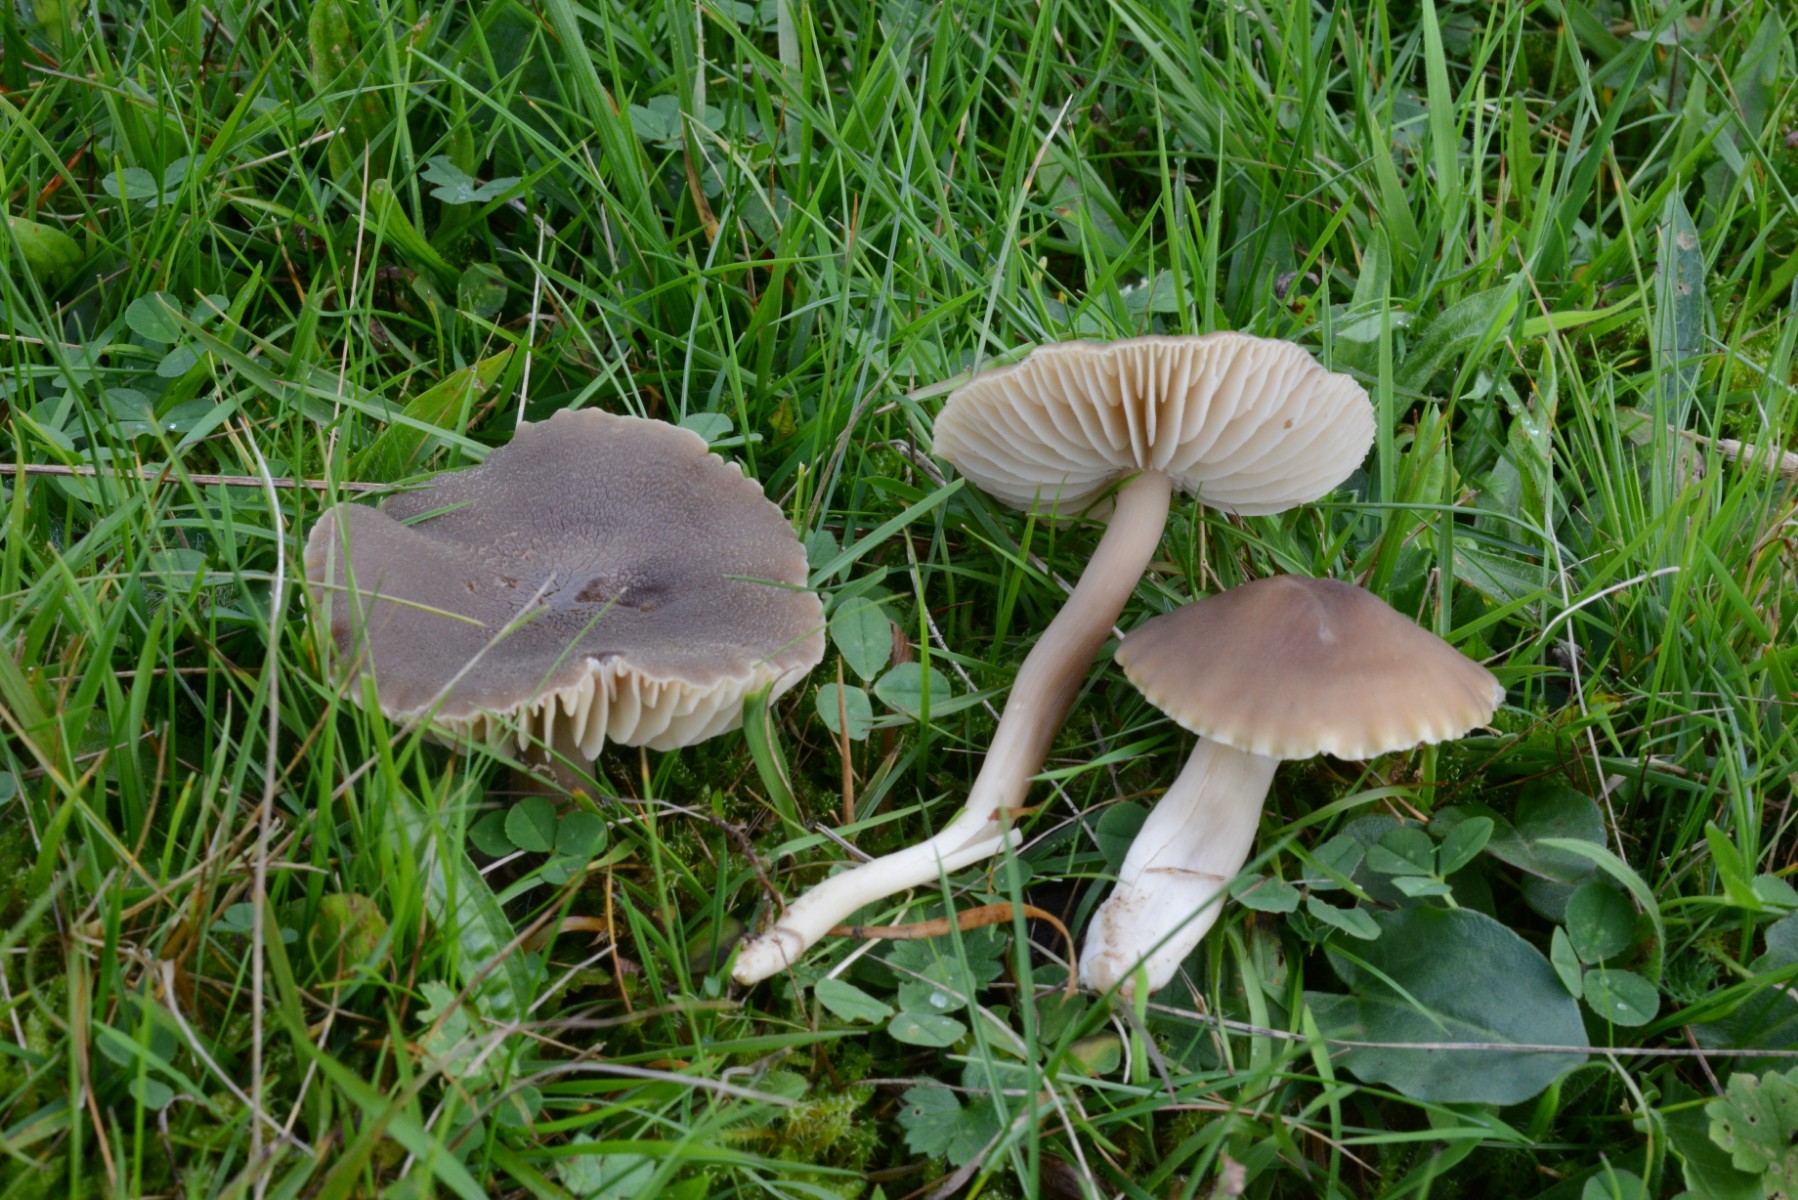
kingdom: Fungi
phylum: Basidiomycota
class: Agaricomycetes
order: Agaricales
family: Hygrophoraceae
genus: Neohygrocybe
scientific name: Neohygrocybe nitrata
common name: stinkende vokshat
